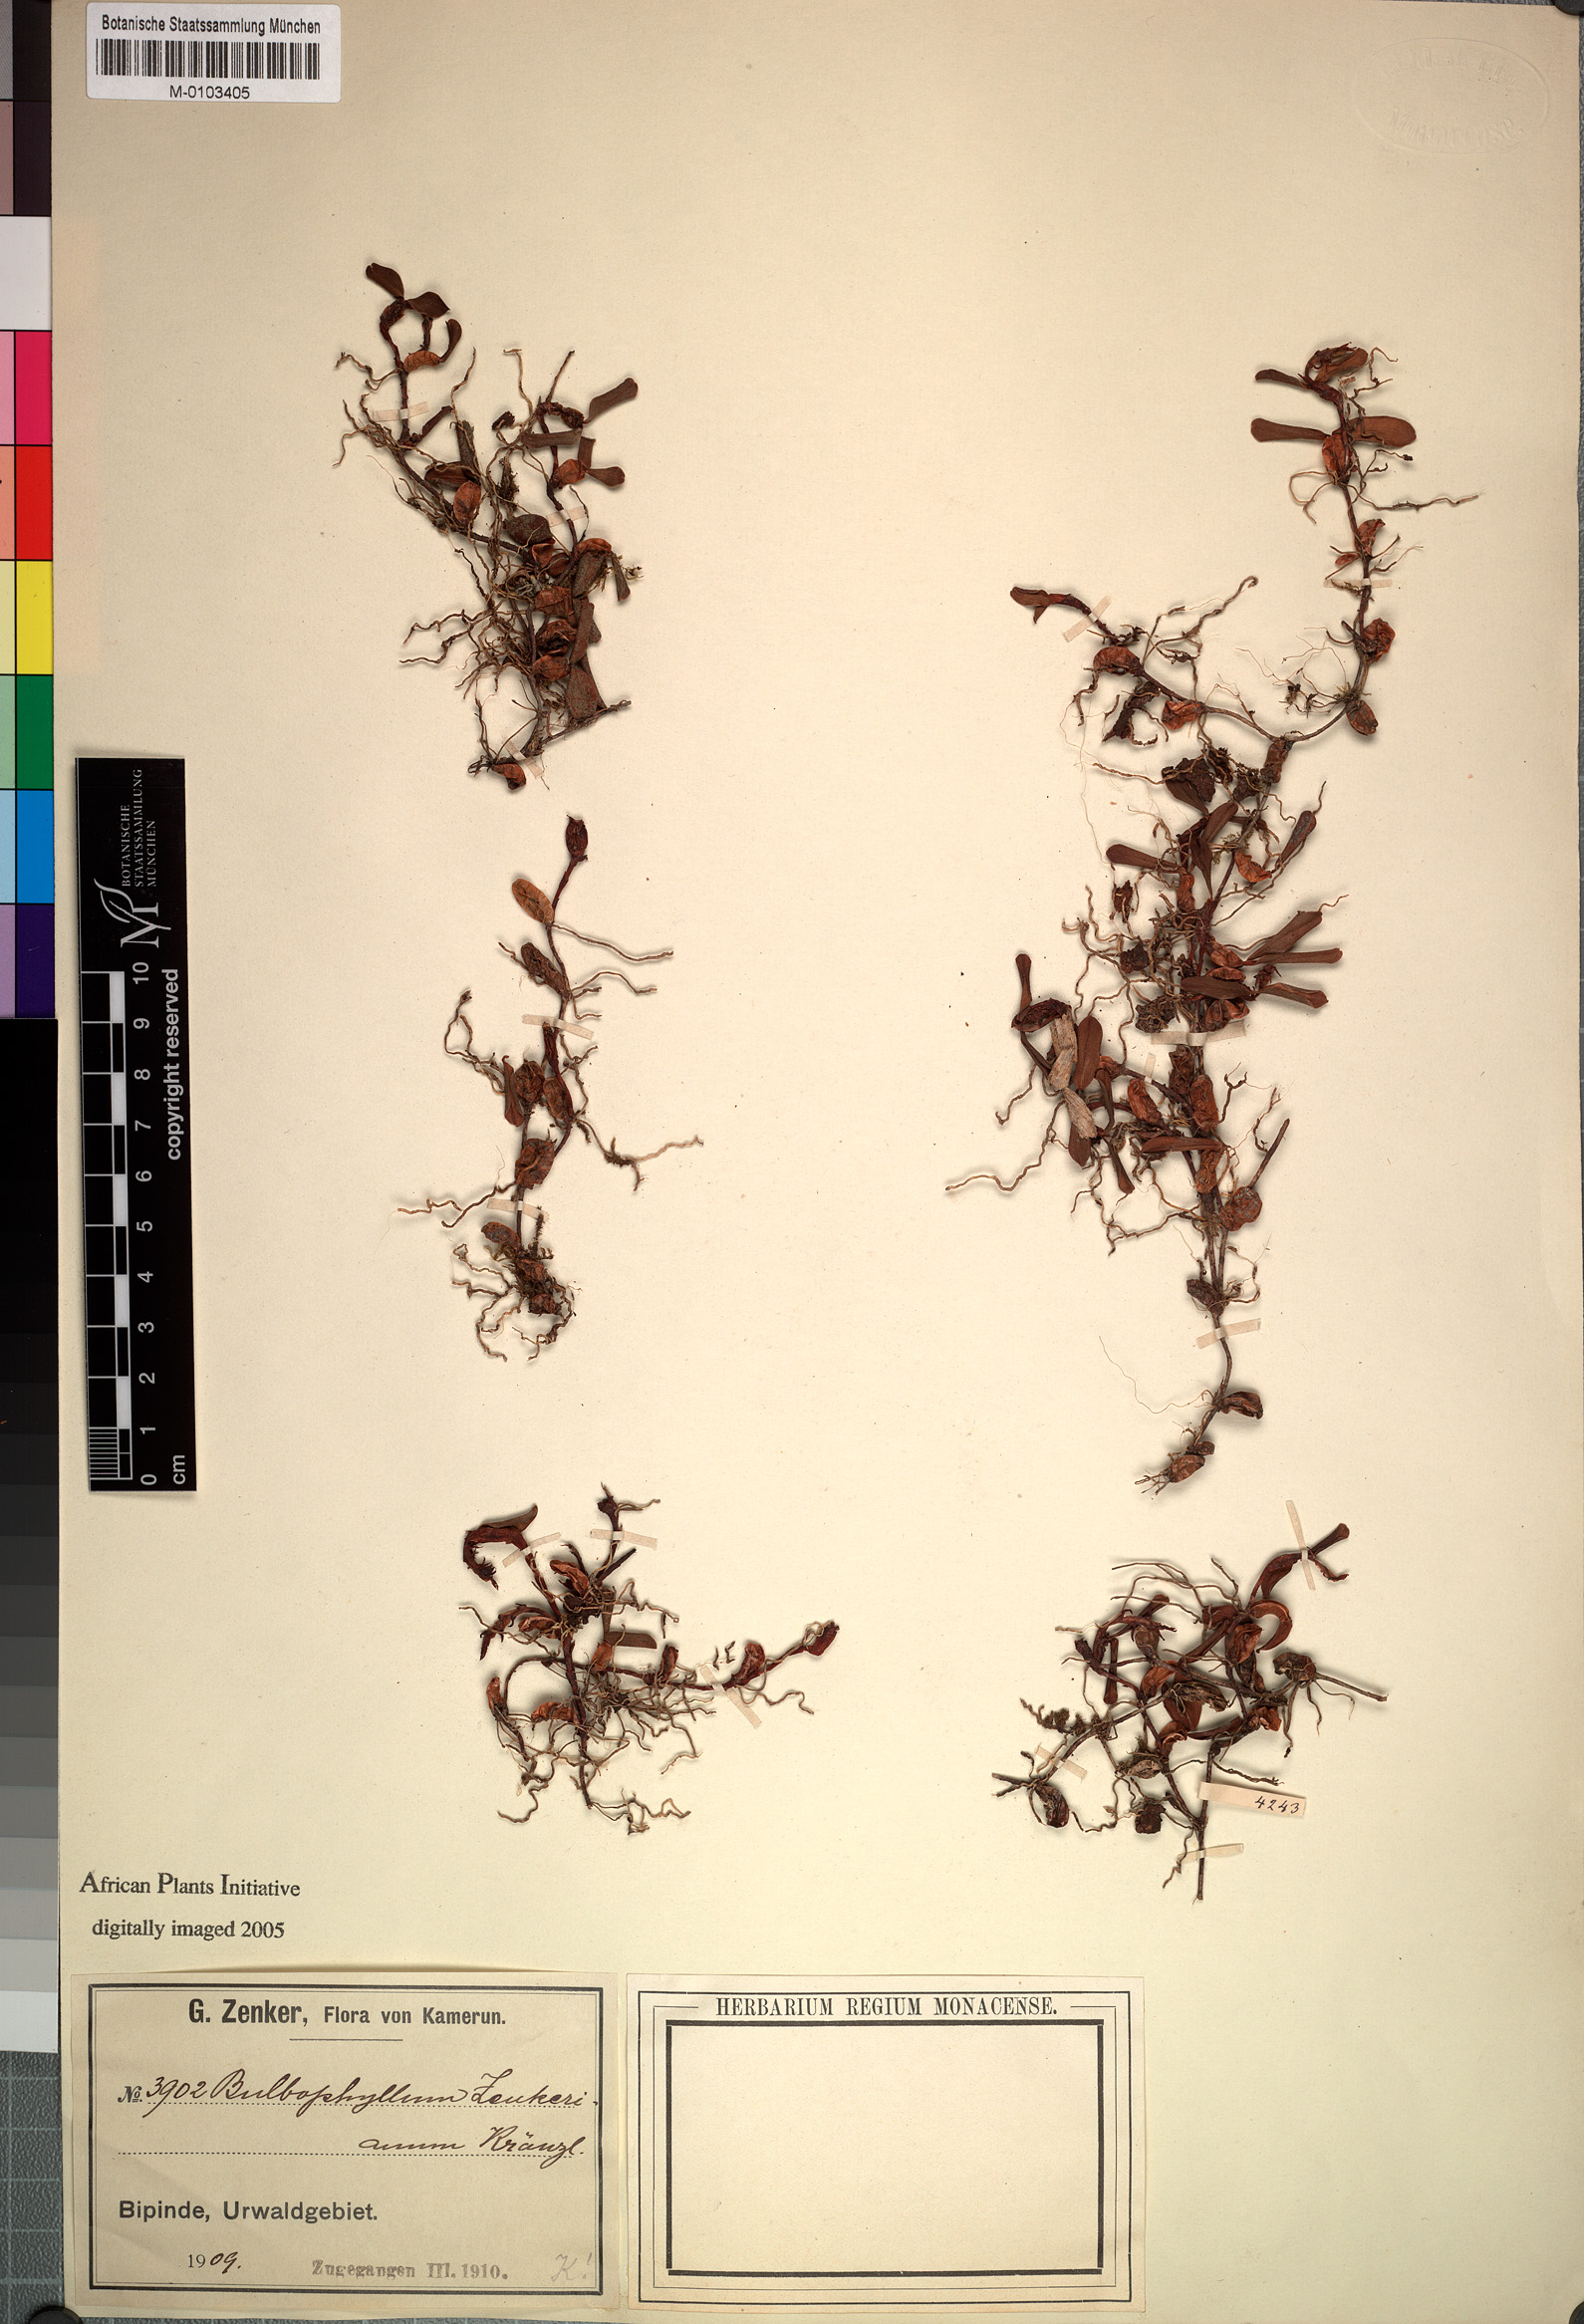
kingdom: Plantae
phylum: Tracheophyta
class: Liliopsida
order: Asparagales
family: Orchidaceae
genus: Bulbophyllum
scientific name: Bulbophyllum oreonastes
